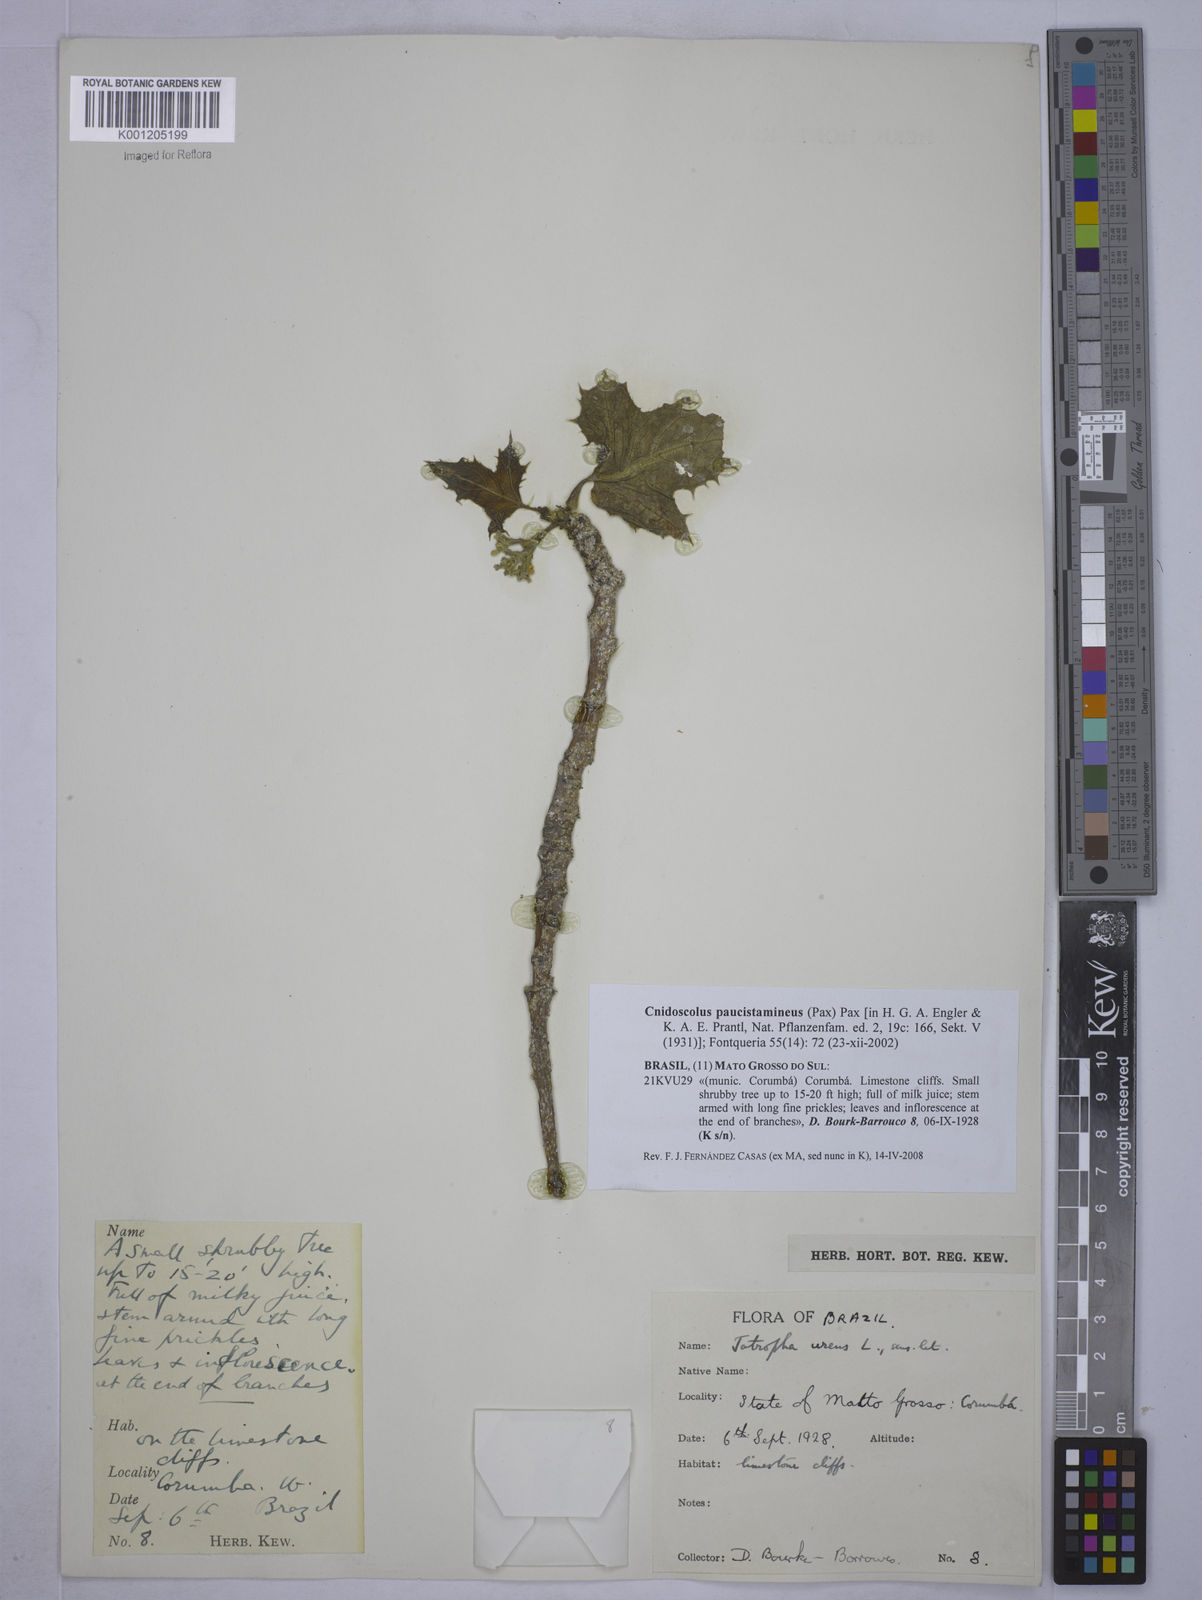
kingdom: Plantae
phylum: Tracheophyta
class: Magnoliopsida
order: Malpighiales
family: Euphorbiaceae
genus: Cnidoscolus
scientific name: Cnidoscolus paucistamineus
